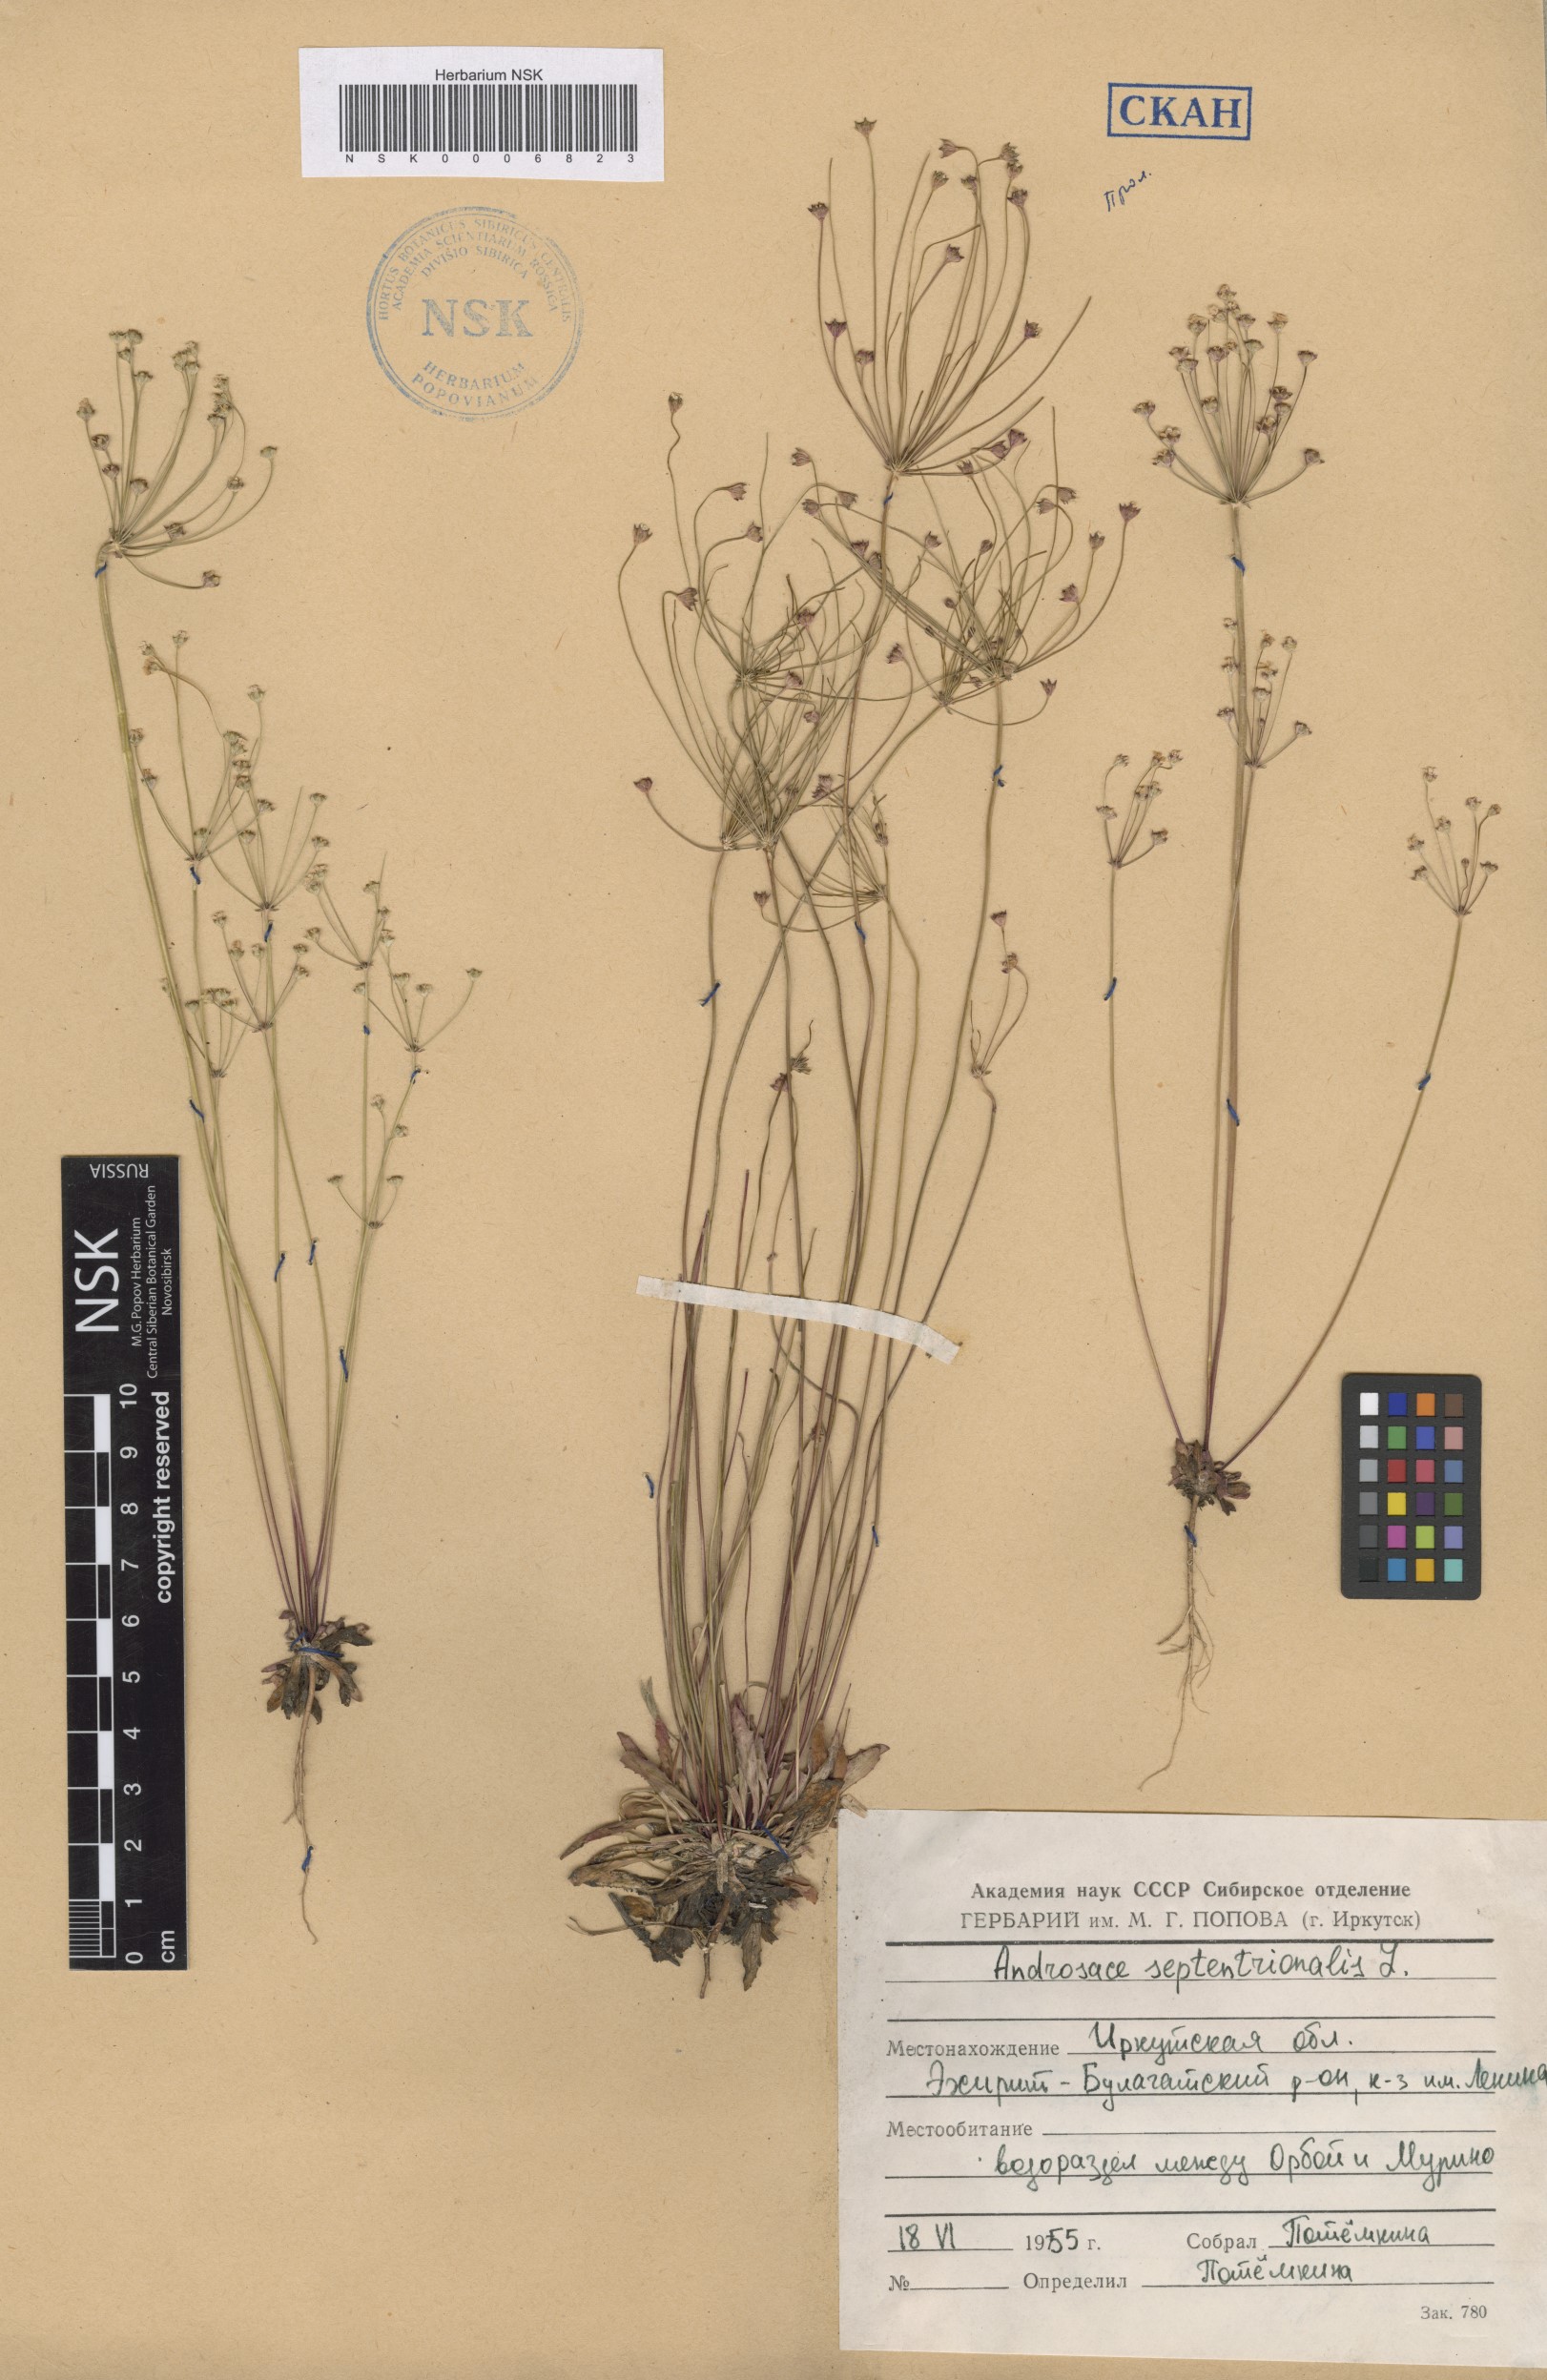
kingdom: Plantae
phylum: Tracheophyta
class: Magnoliopsida
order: Ericales
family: Primulaceae
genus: Androsace
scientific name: Androsace septentrionalis
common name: Hairy northern fairy-candelabra
